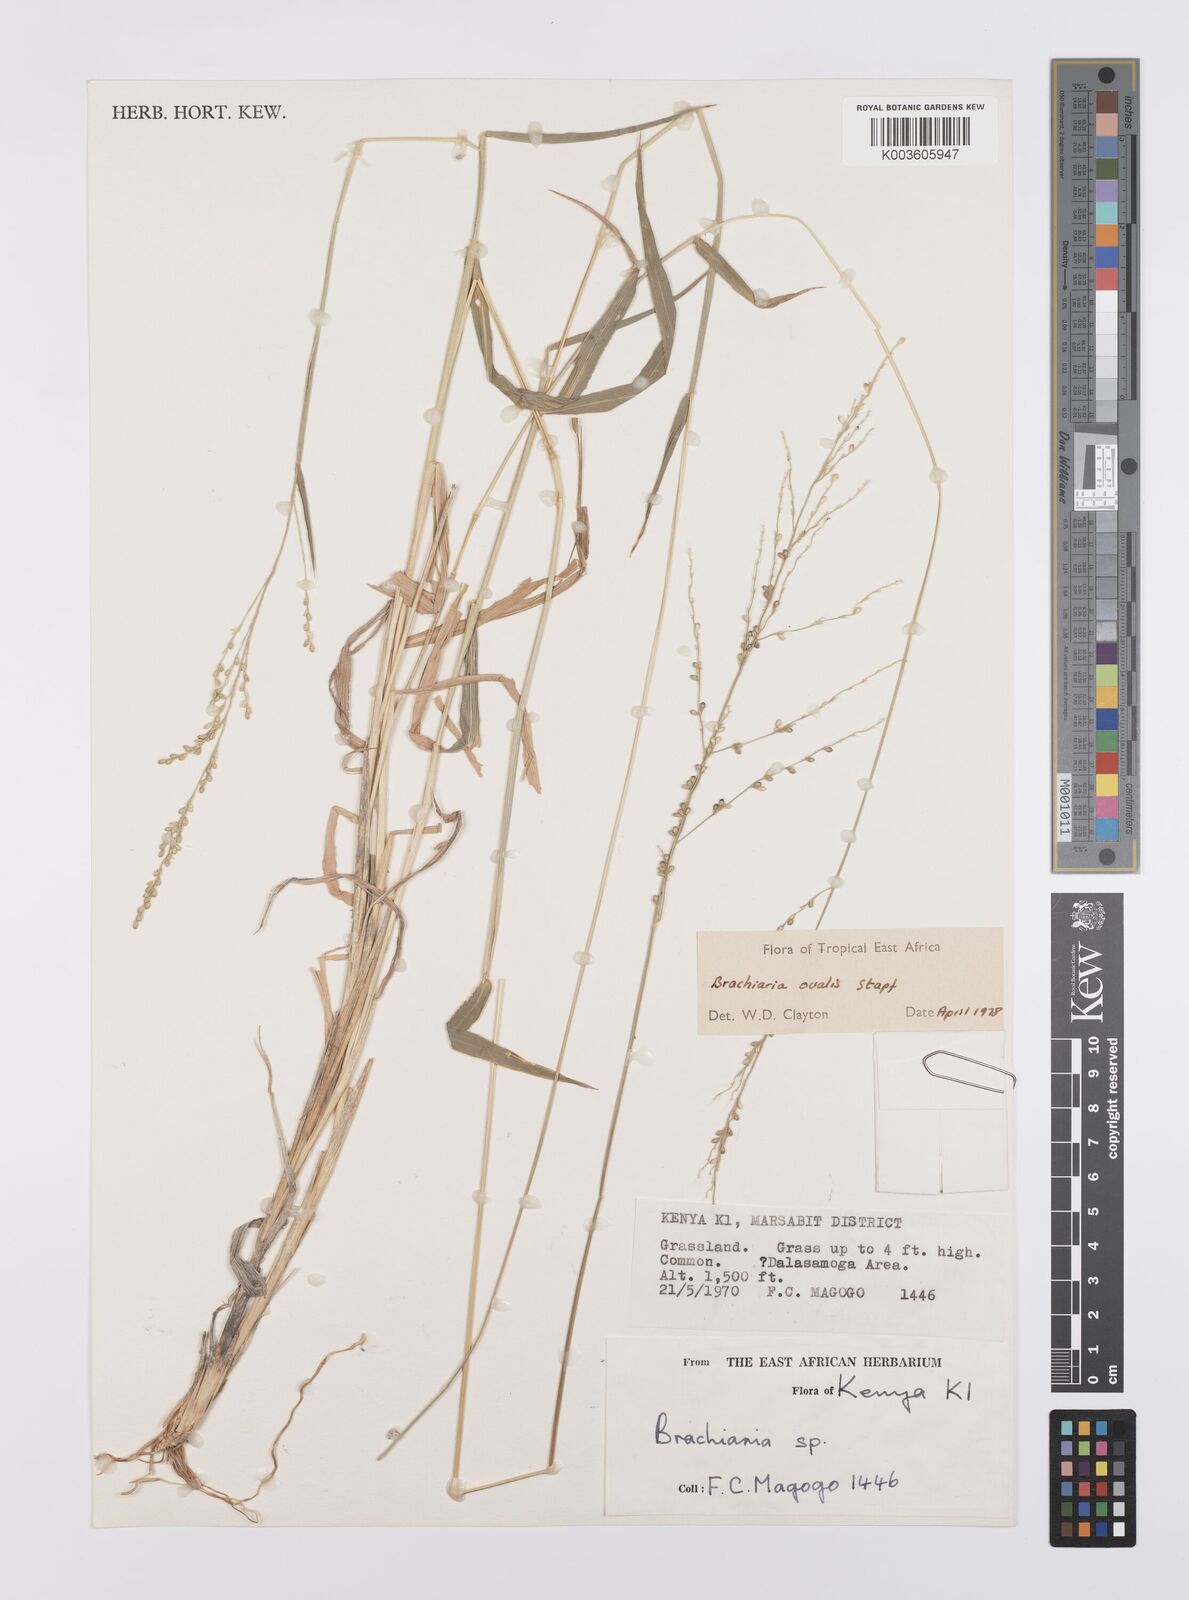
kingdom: Plantae
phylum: Tracheophyta
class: Liliopsida
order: Poales
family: Poaceae
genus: Urochloa
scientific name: Urochloa ovalis
